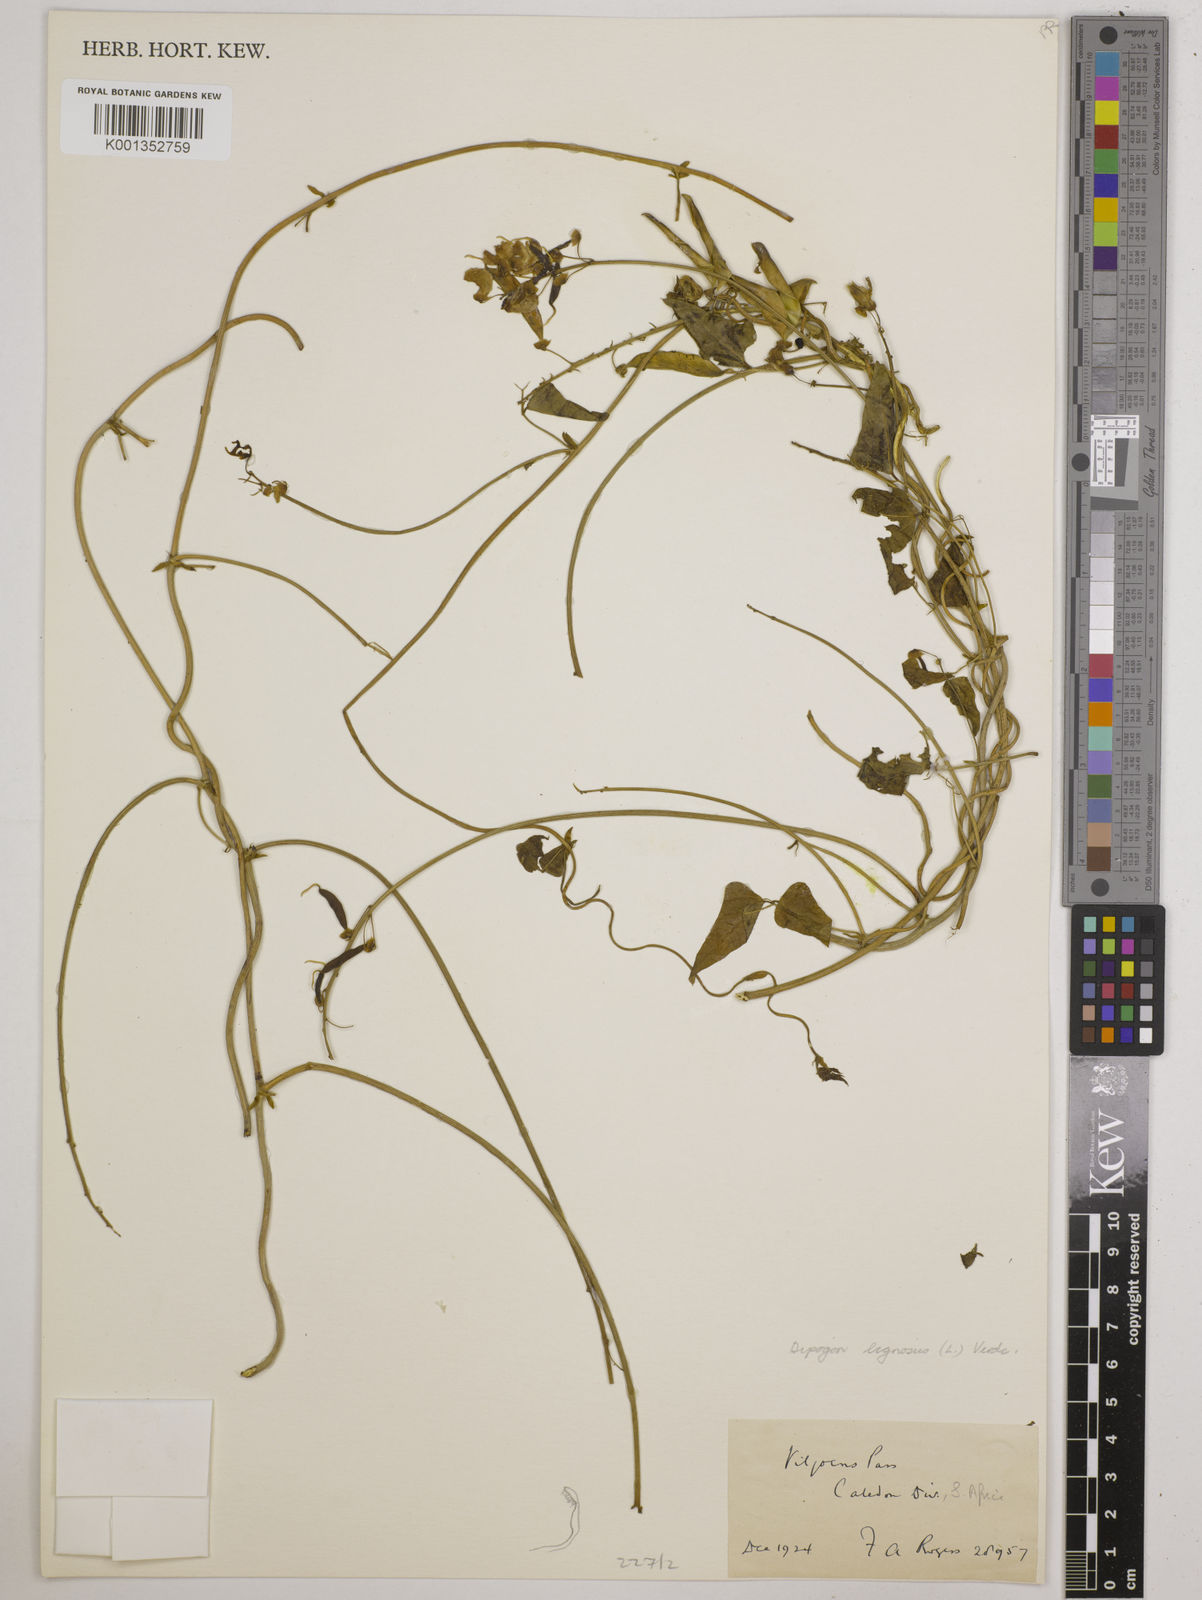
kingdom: Plantae
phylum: Tracheophyta
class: Magnoliopsida
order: Fabales
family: Fabaceae
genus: Dipogon
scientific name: Dipogon lignosus
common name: Okie bean
